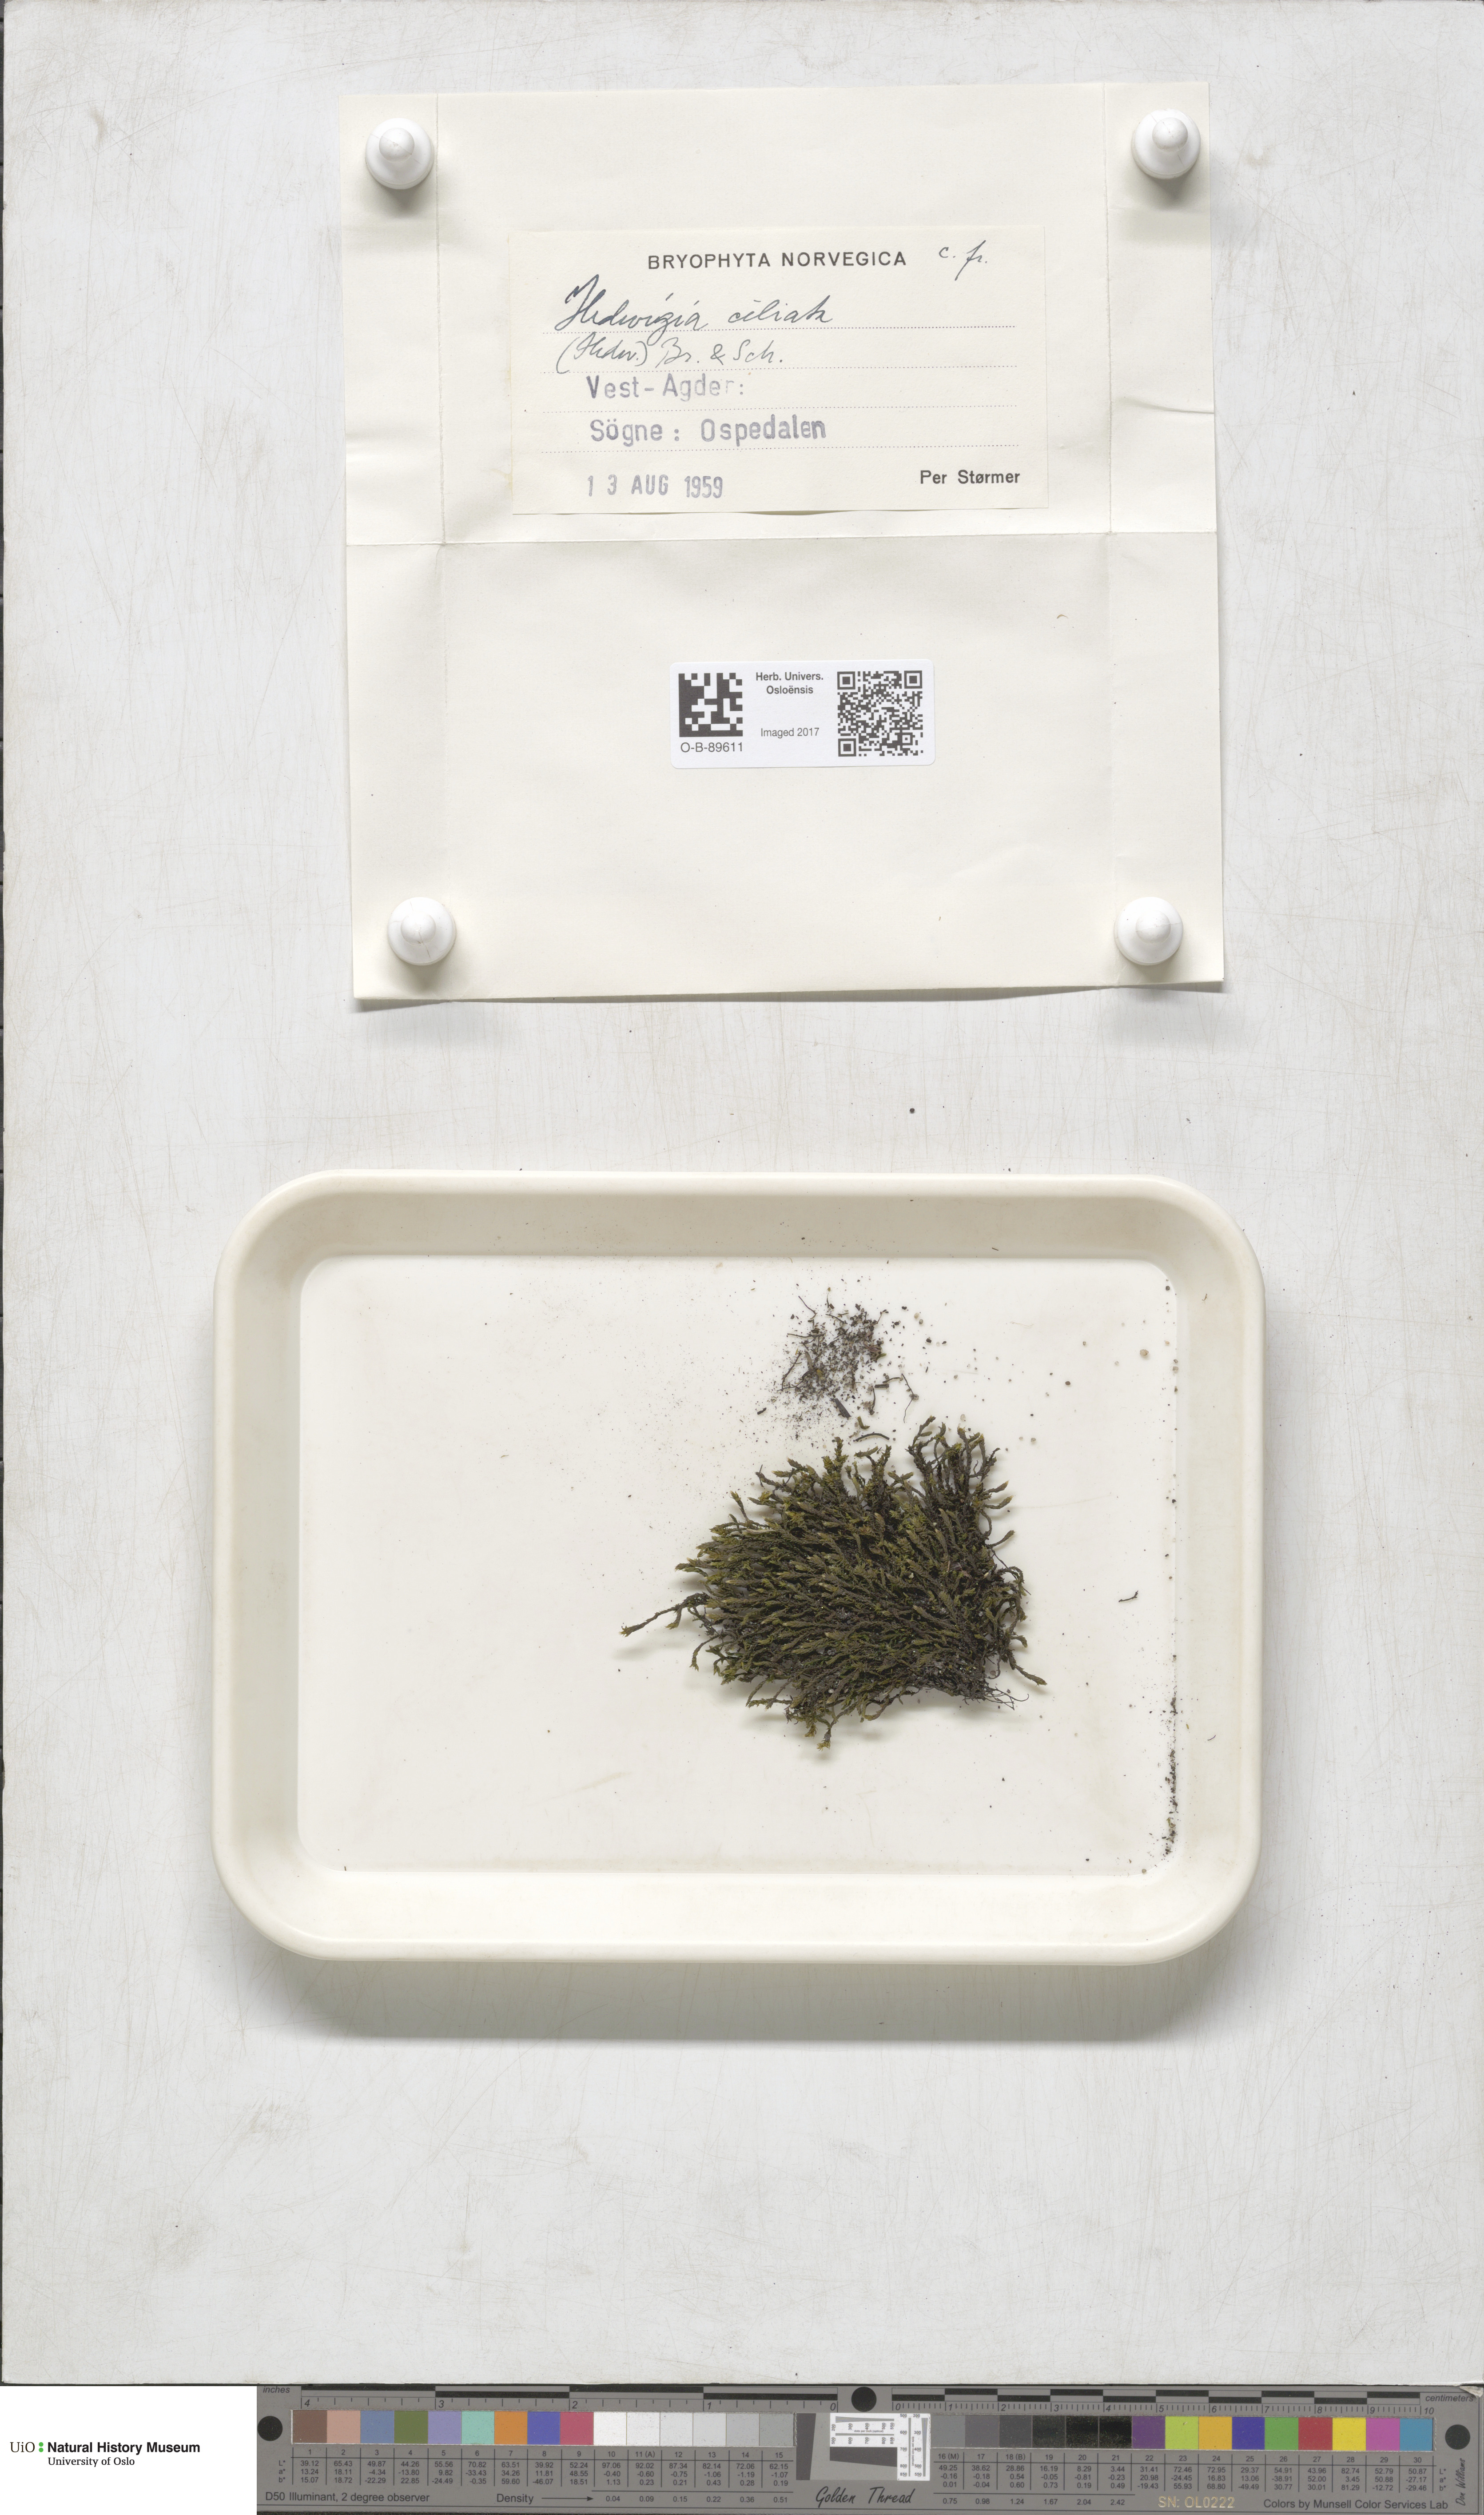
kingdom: Plantae
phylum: Bryophyta
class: Bryopsida
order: Hedwigiales
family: Hedwigiaceae
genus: Hedwigia
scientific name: Hedwigia ciliata
